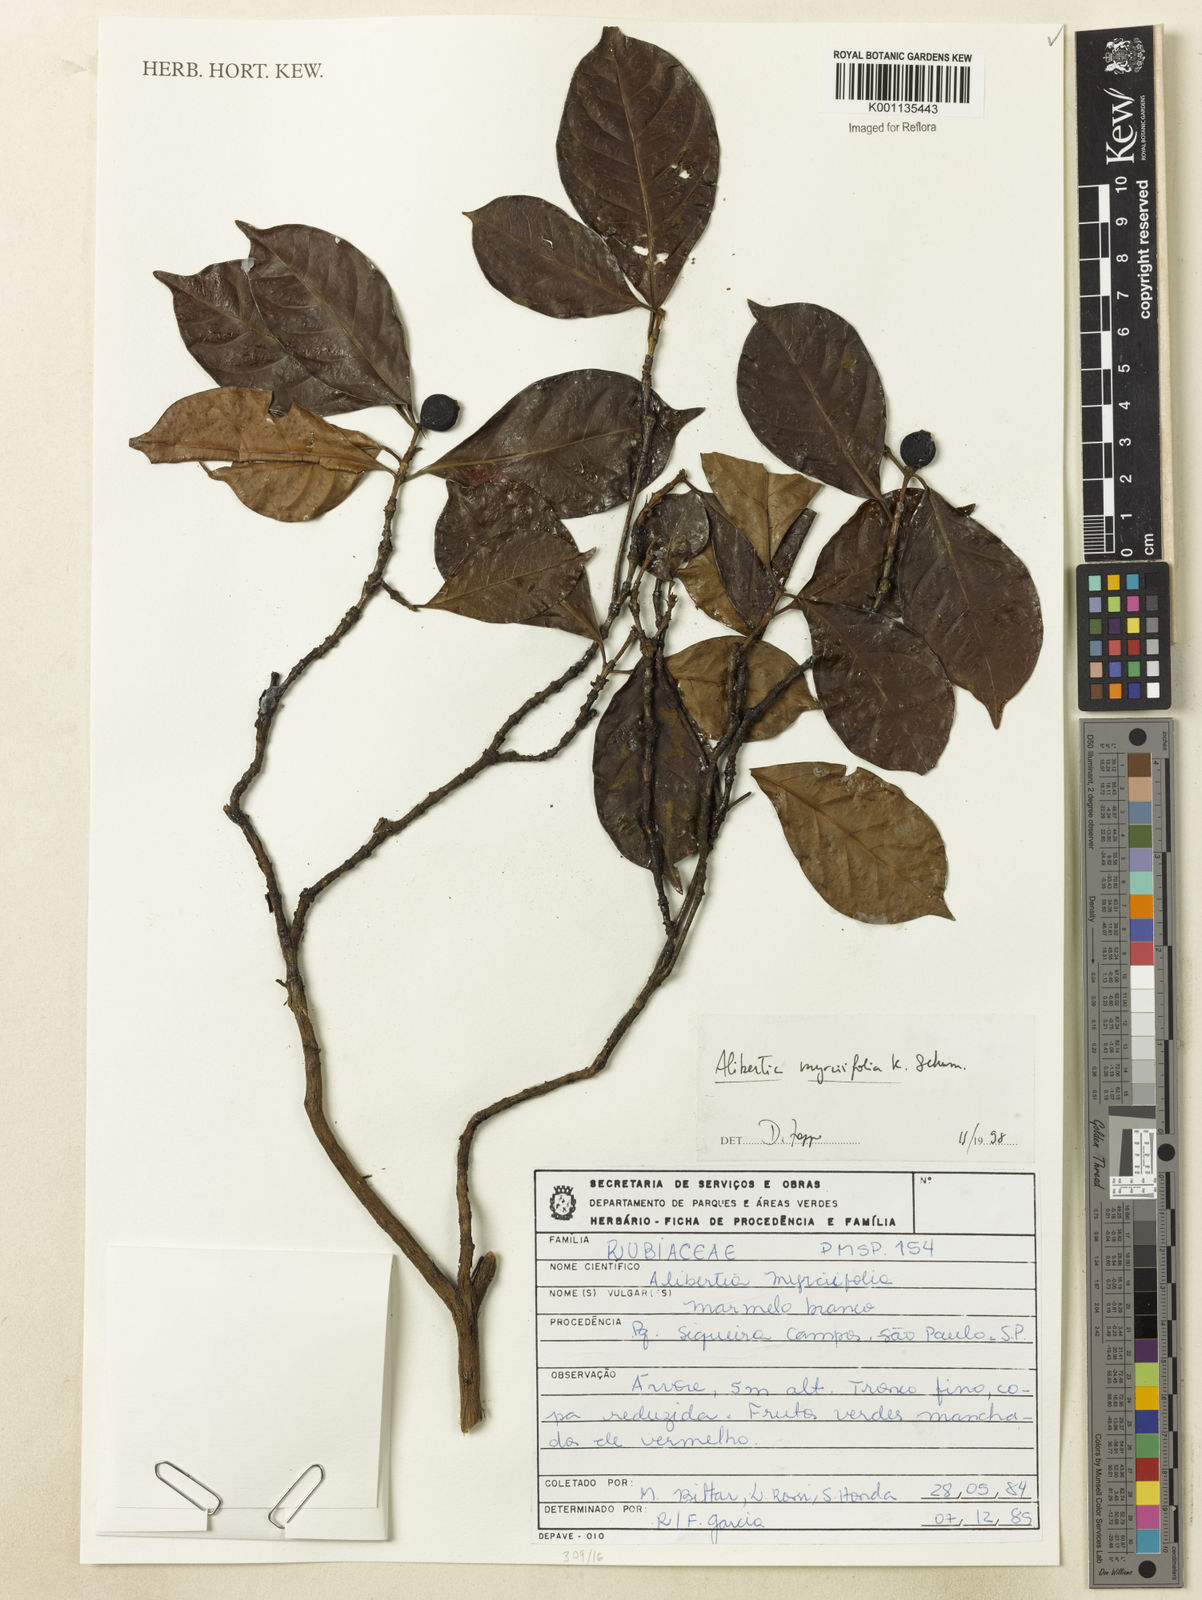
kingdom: Plantae
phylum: Tracheophyta
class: Magnoliopsida
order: Gentianales
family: Rubiaceae
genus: Cordiera
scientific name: Cordiera myrciifolia
